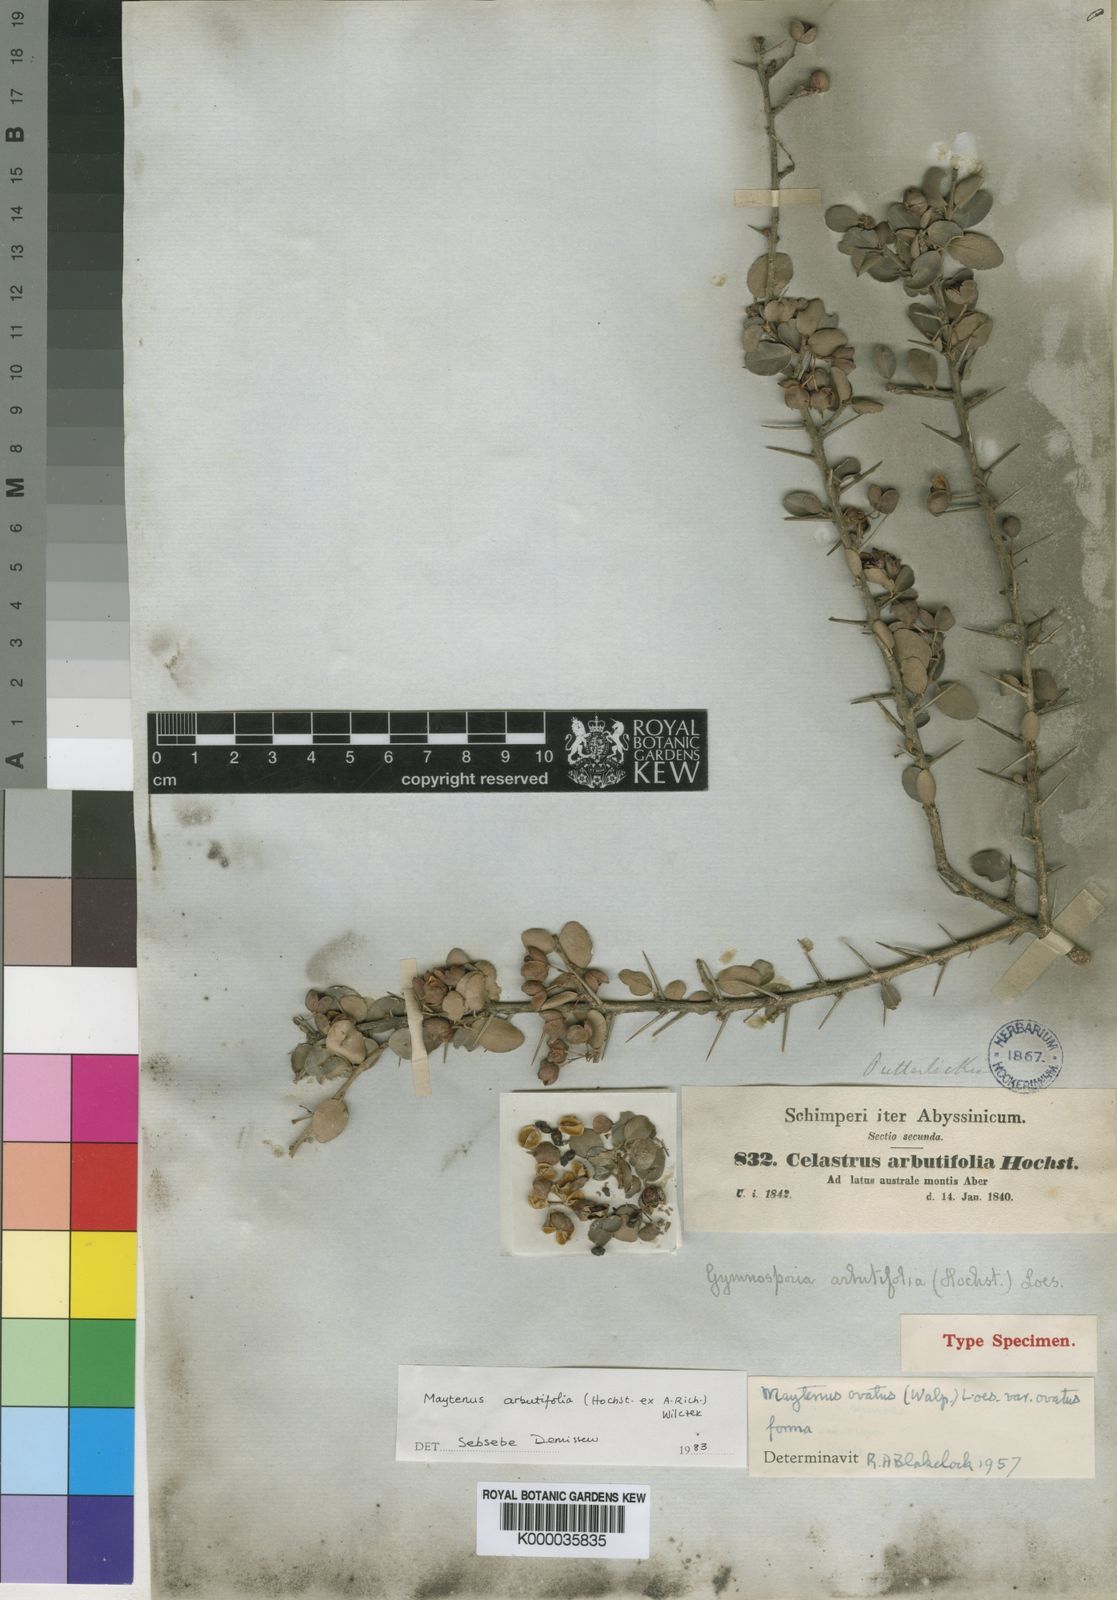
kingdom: Plantae
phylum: Tracheophyta
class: Magnoliopsida
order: Celastrales
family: Celastraceae
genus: Gymnosporia
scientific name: Gymnosporia arbutifolia
